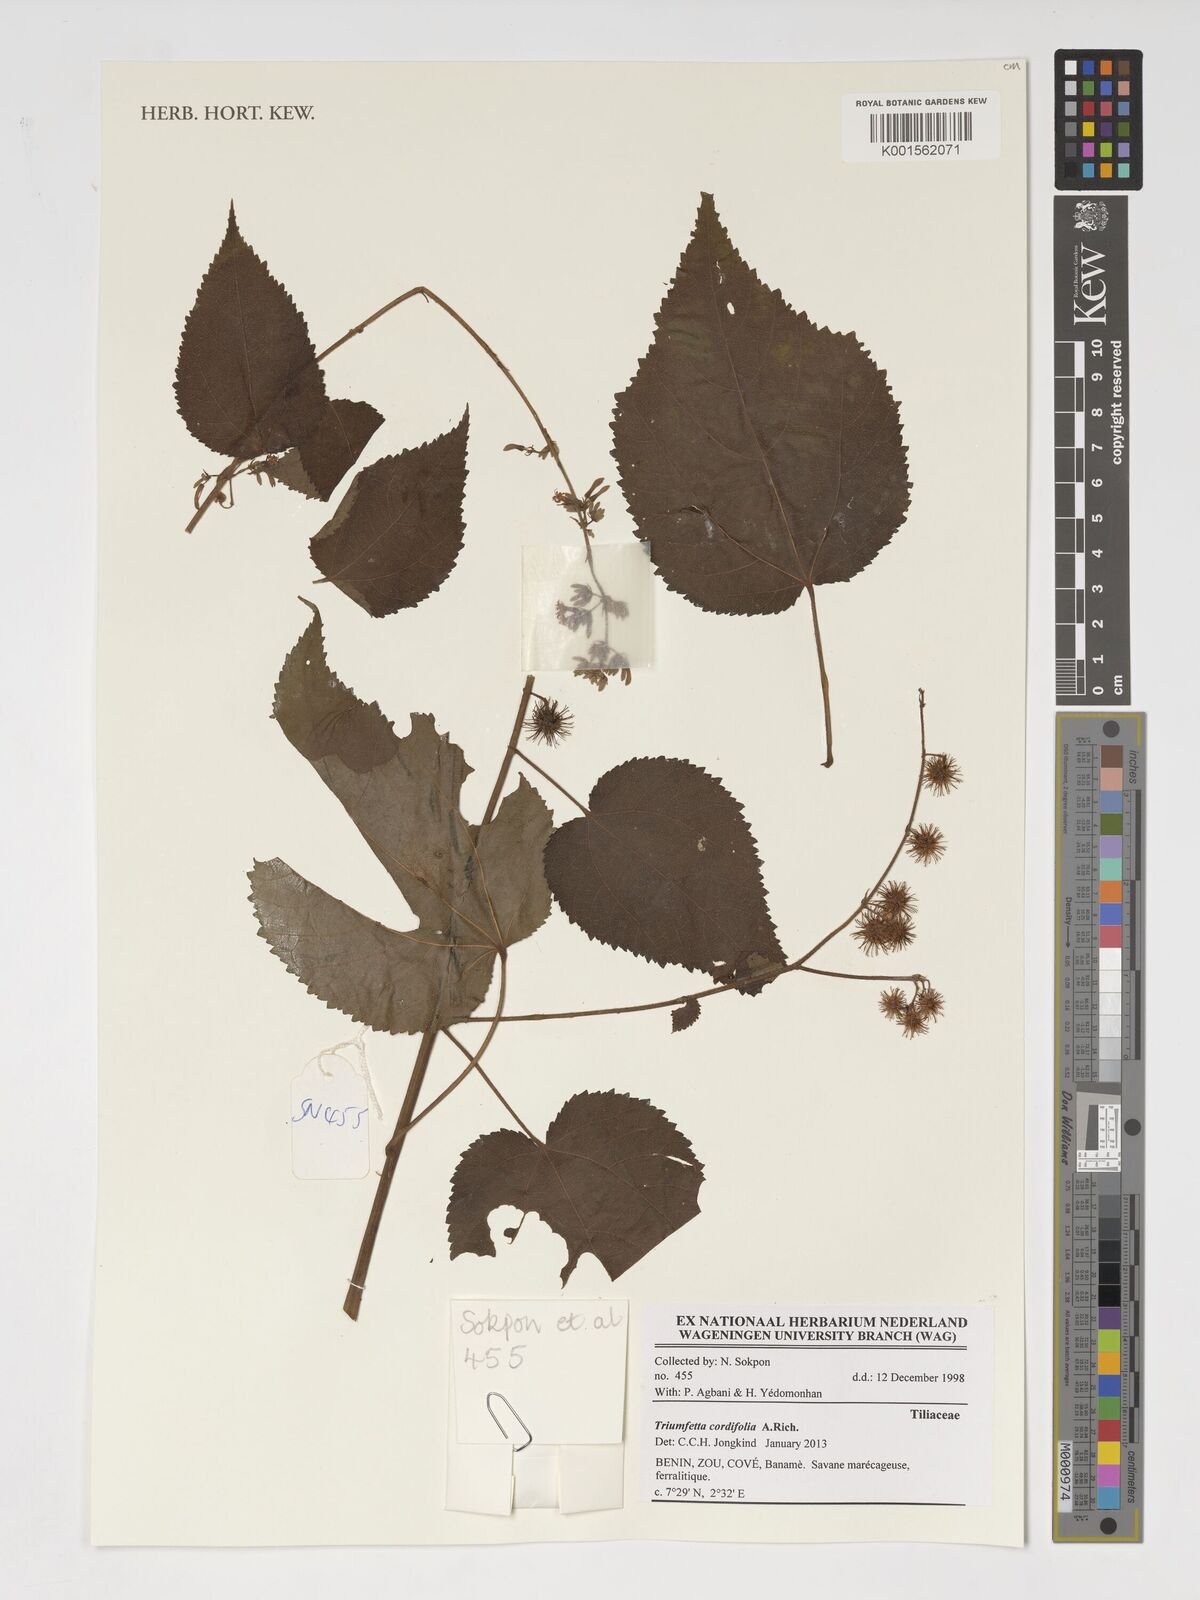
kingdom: Plantae
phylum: Tracheophyta
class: Magnoliopsida
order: Malvales
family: Malvaceae
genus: Triumfetta
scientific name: Triumfetta cordifolia
